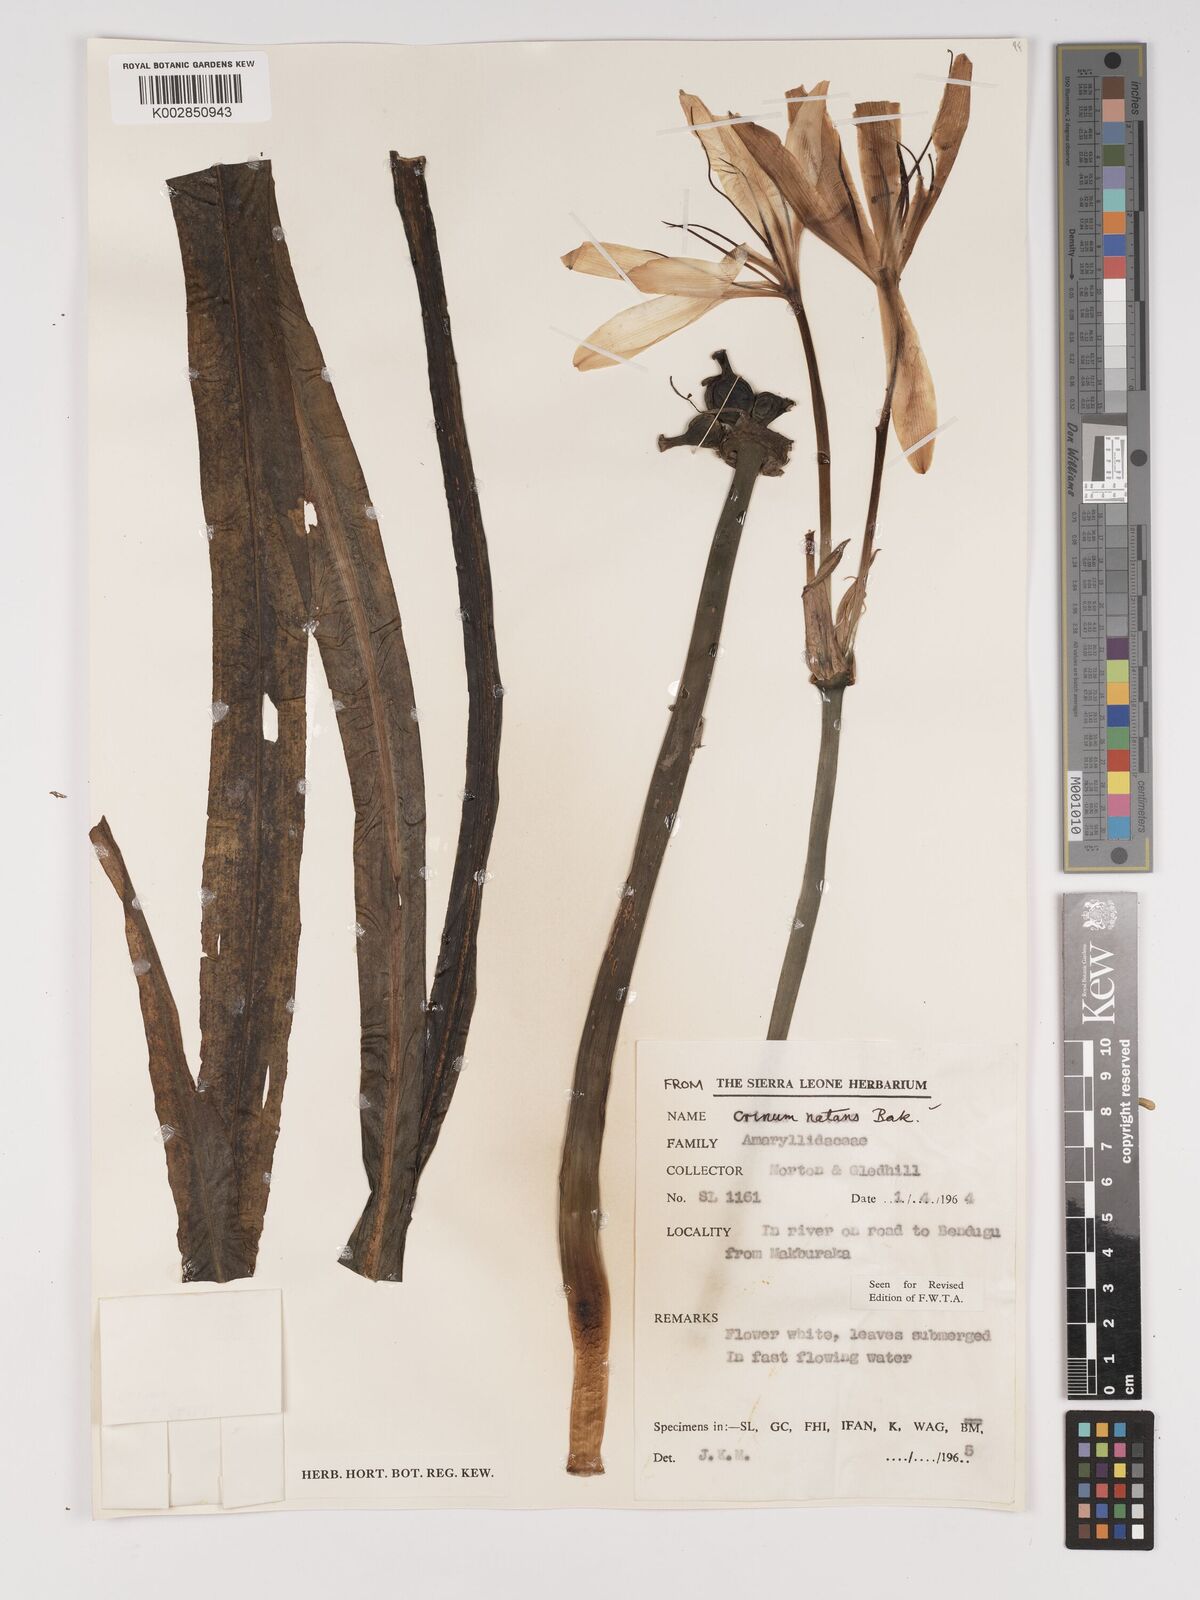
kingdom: Plantae
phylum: Tracheophyta
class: Liliopsida
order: Asparagales
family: Amaryllidaceae
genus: Crinum
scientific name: Crinum moorei
